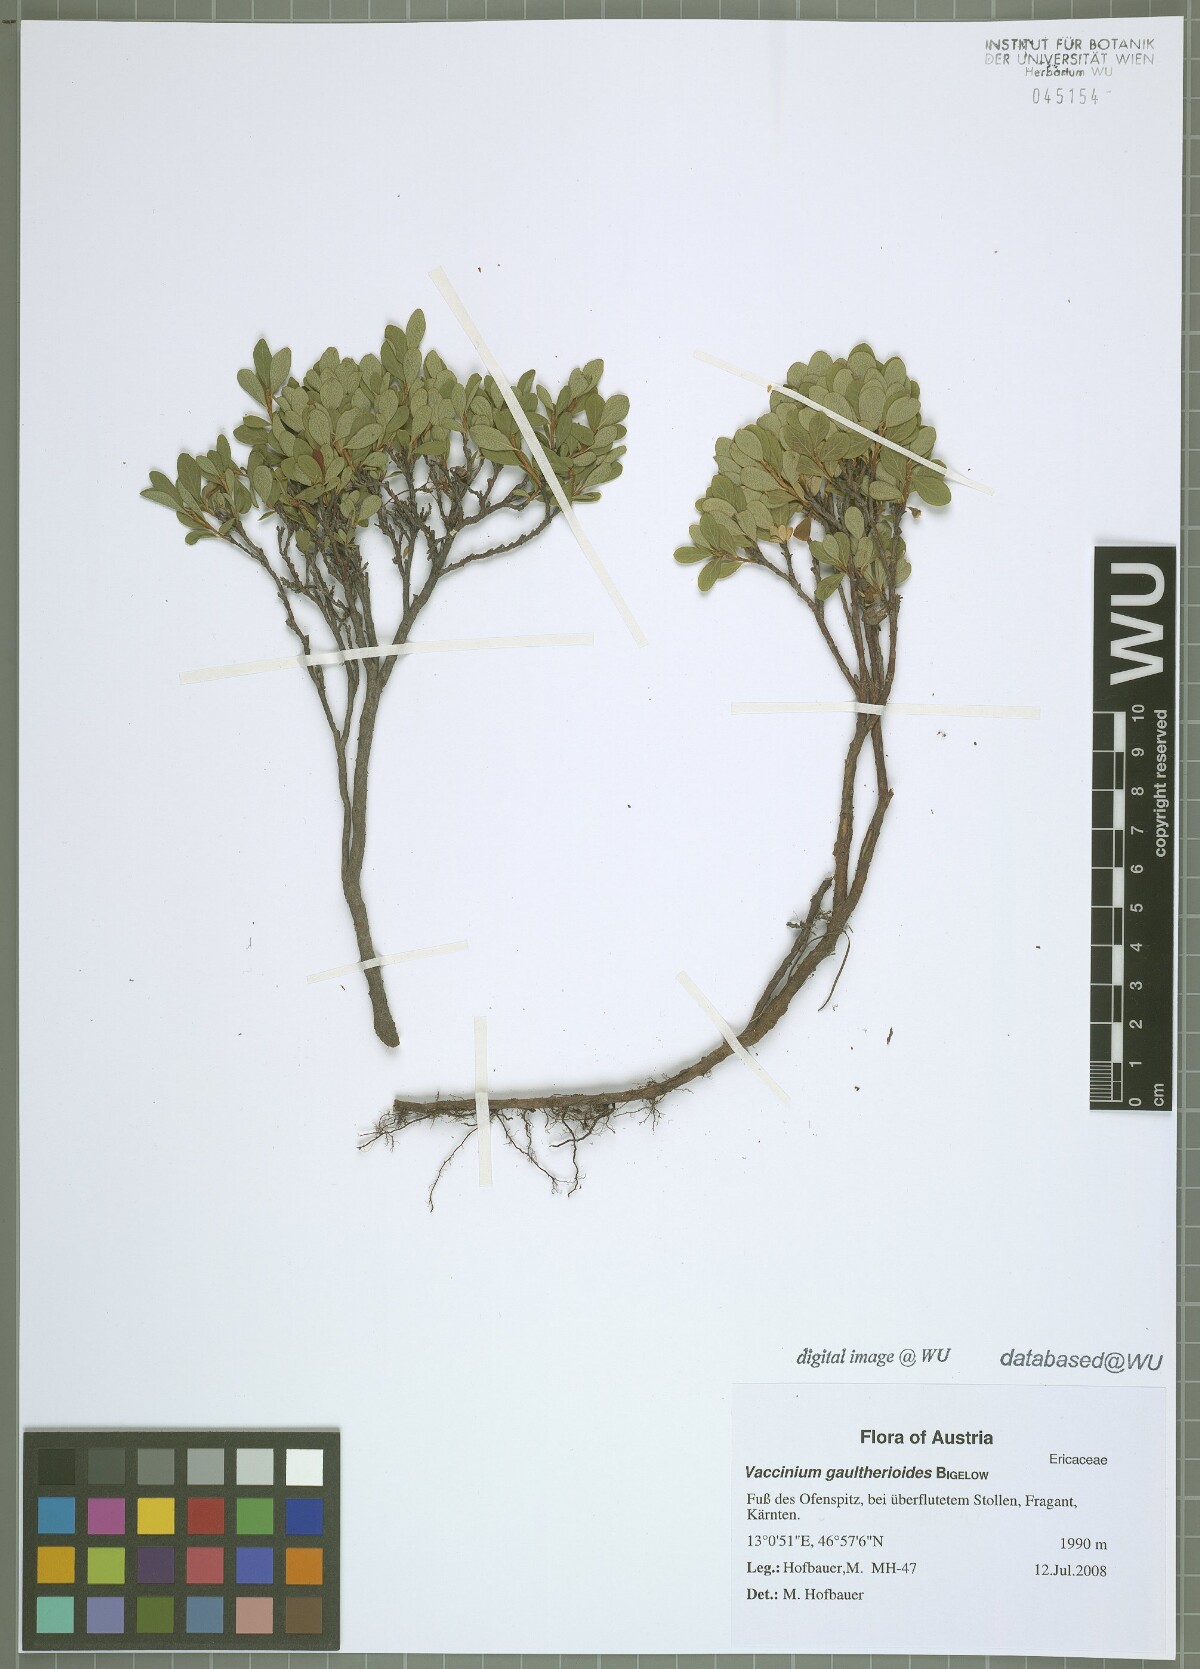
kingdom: Plantae
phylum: Tracheophyta
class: Magnoliopsida
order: Ericales
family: Ericaceae
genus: Vaccinium
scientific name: Vaccinium gaultherioides
